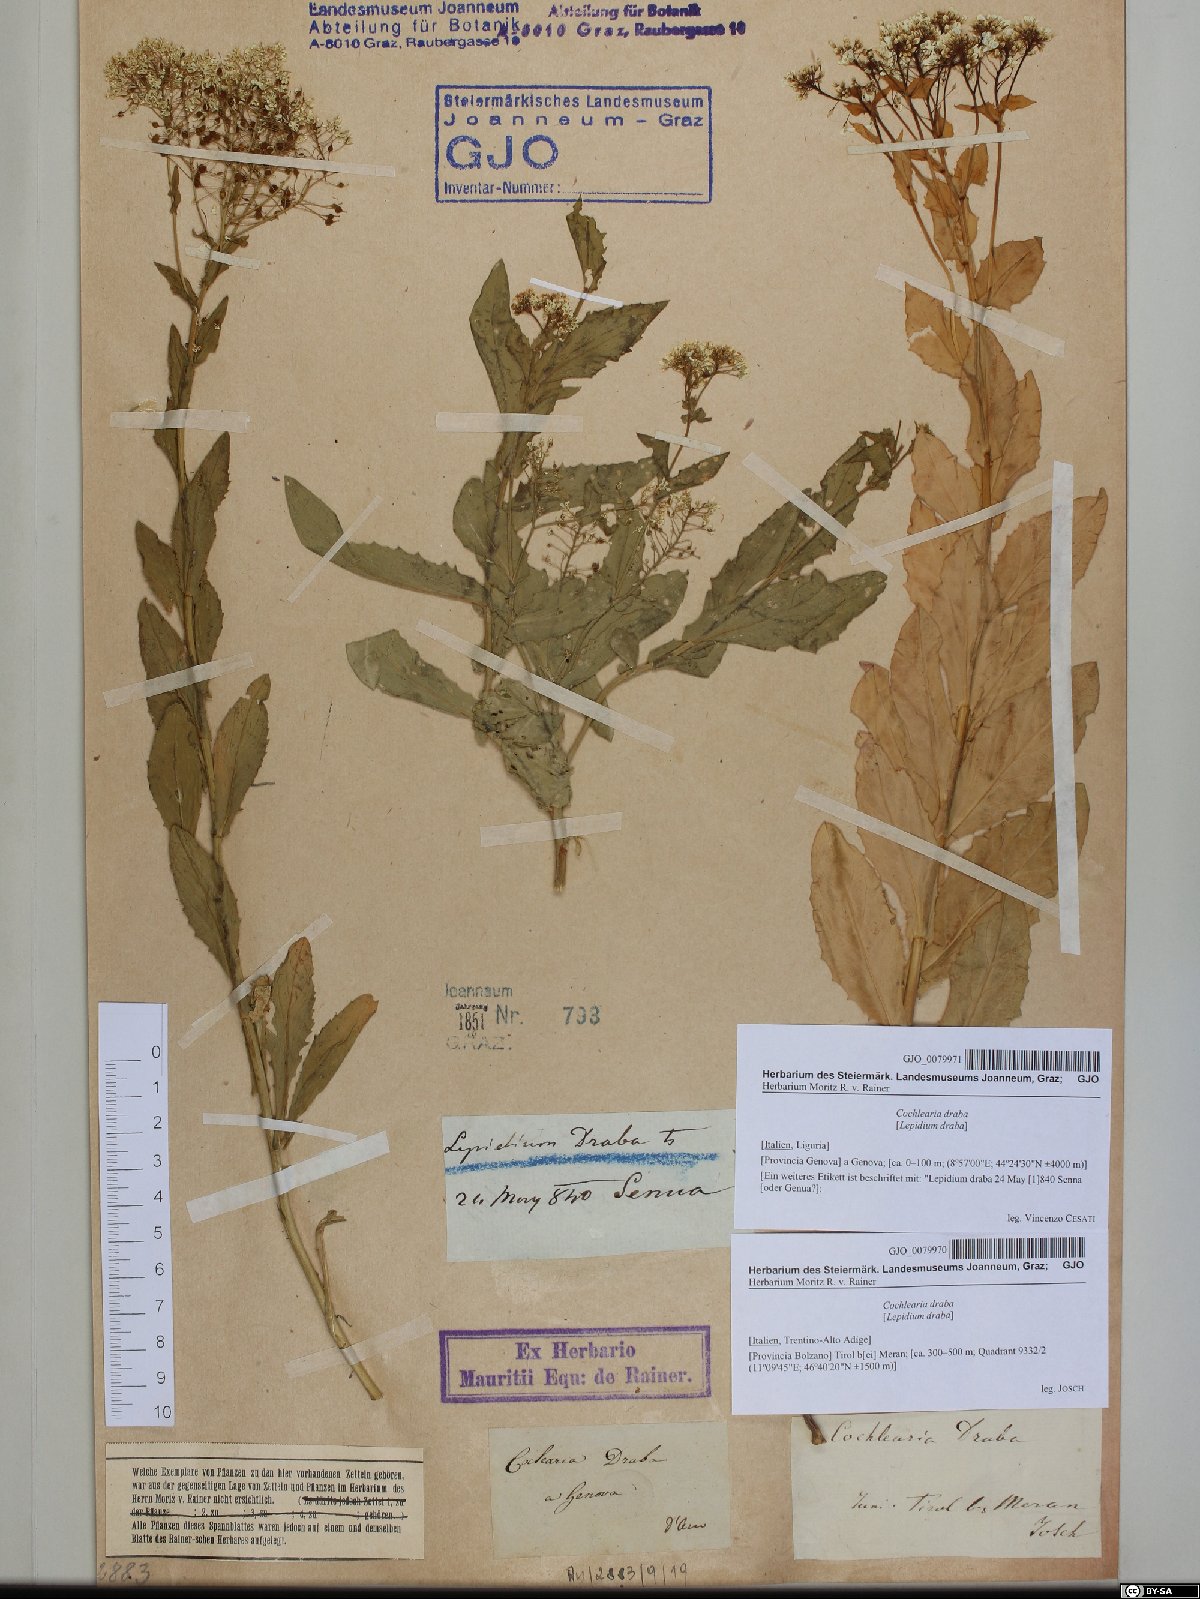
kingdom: Plantae
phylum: Tracheophyta
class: Magnoliopsida
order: Brassicales
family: Brassicaceae
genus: Lepidium
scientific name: Lepidium draba
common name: Hoary cress
